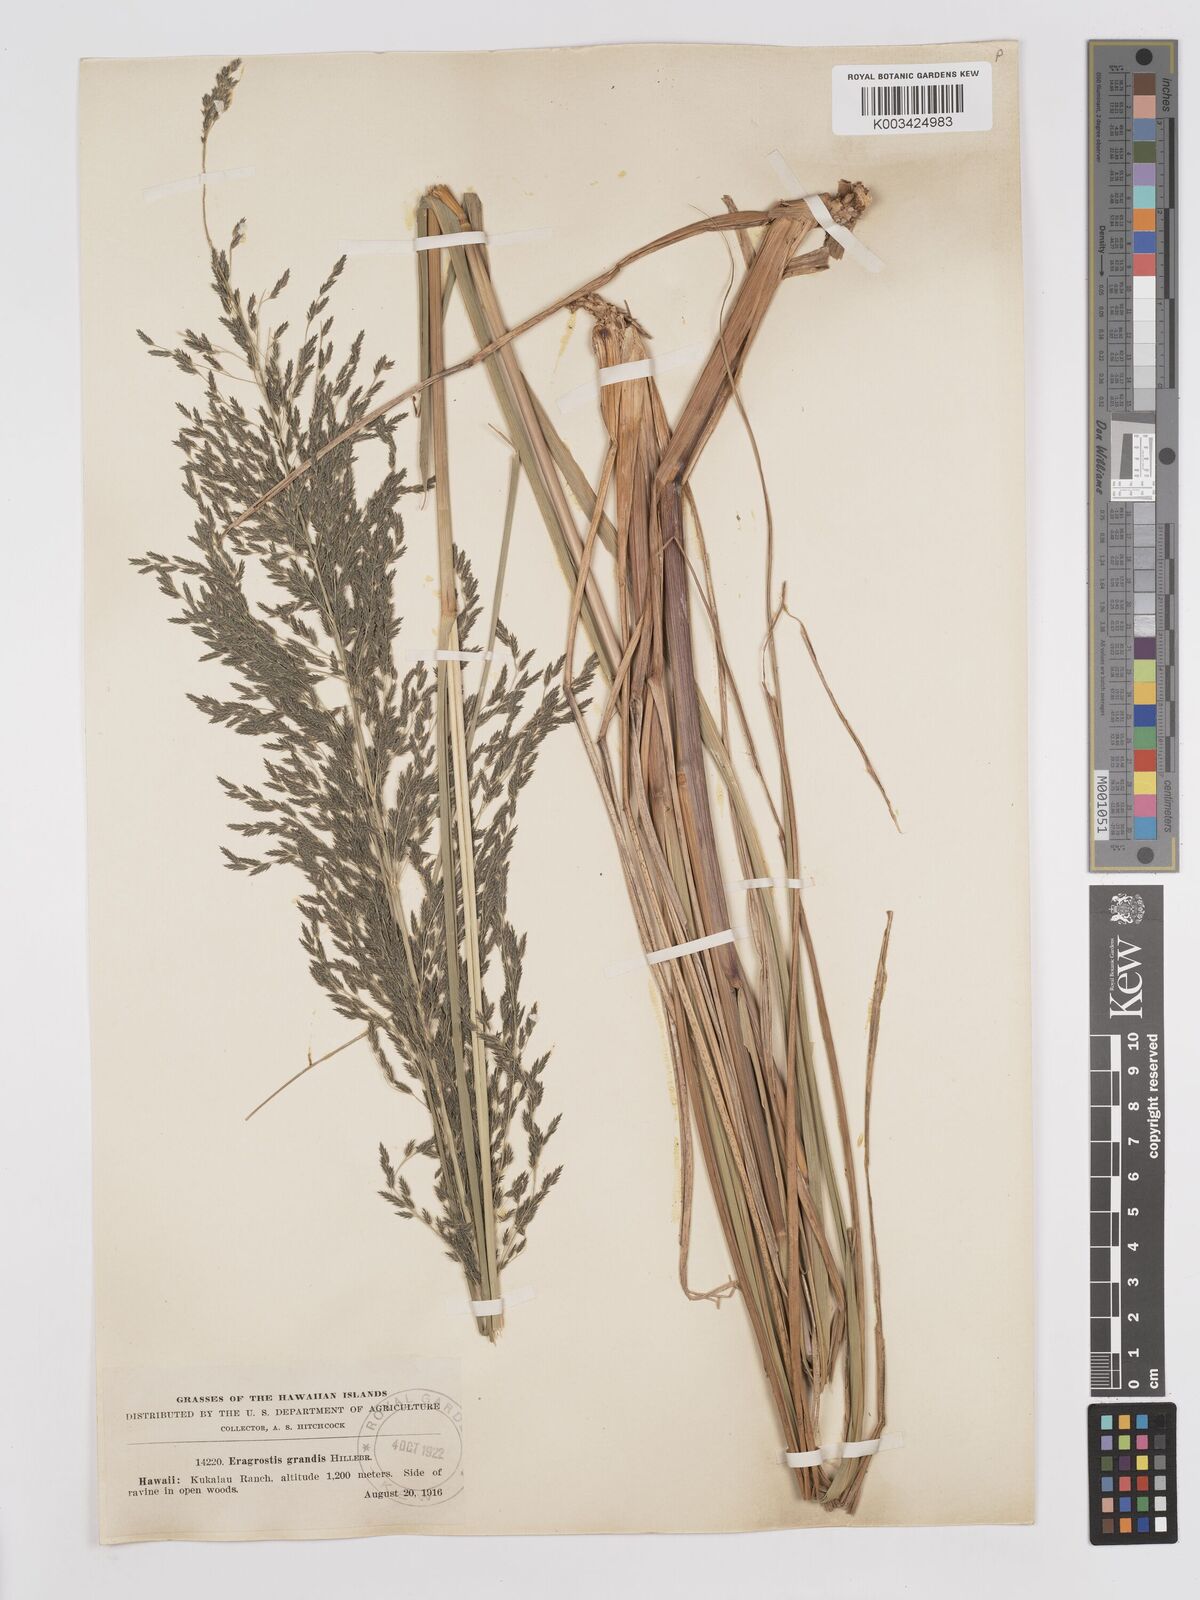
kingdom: Plantae
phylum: Tracheophyta
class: Liliopsida
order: Poales
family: Poaceae
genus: Eragrostis
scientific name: Eragrostis grandis
